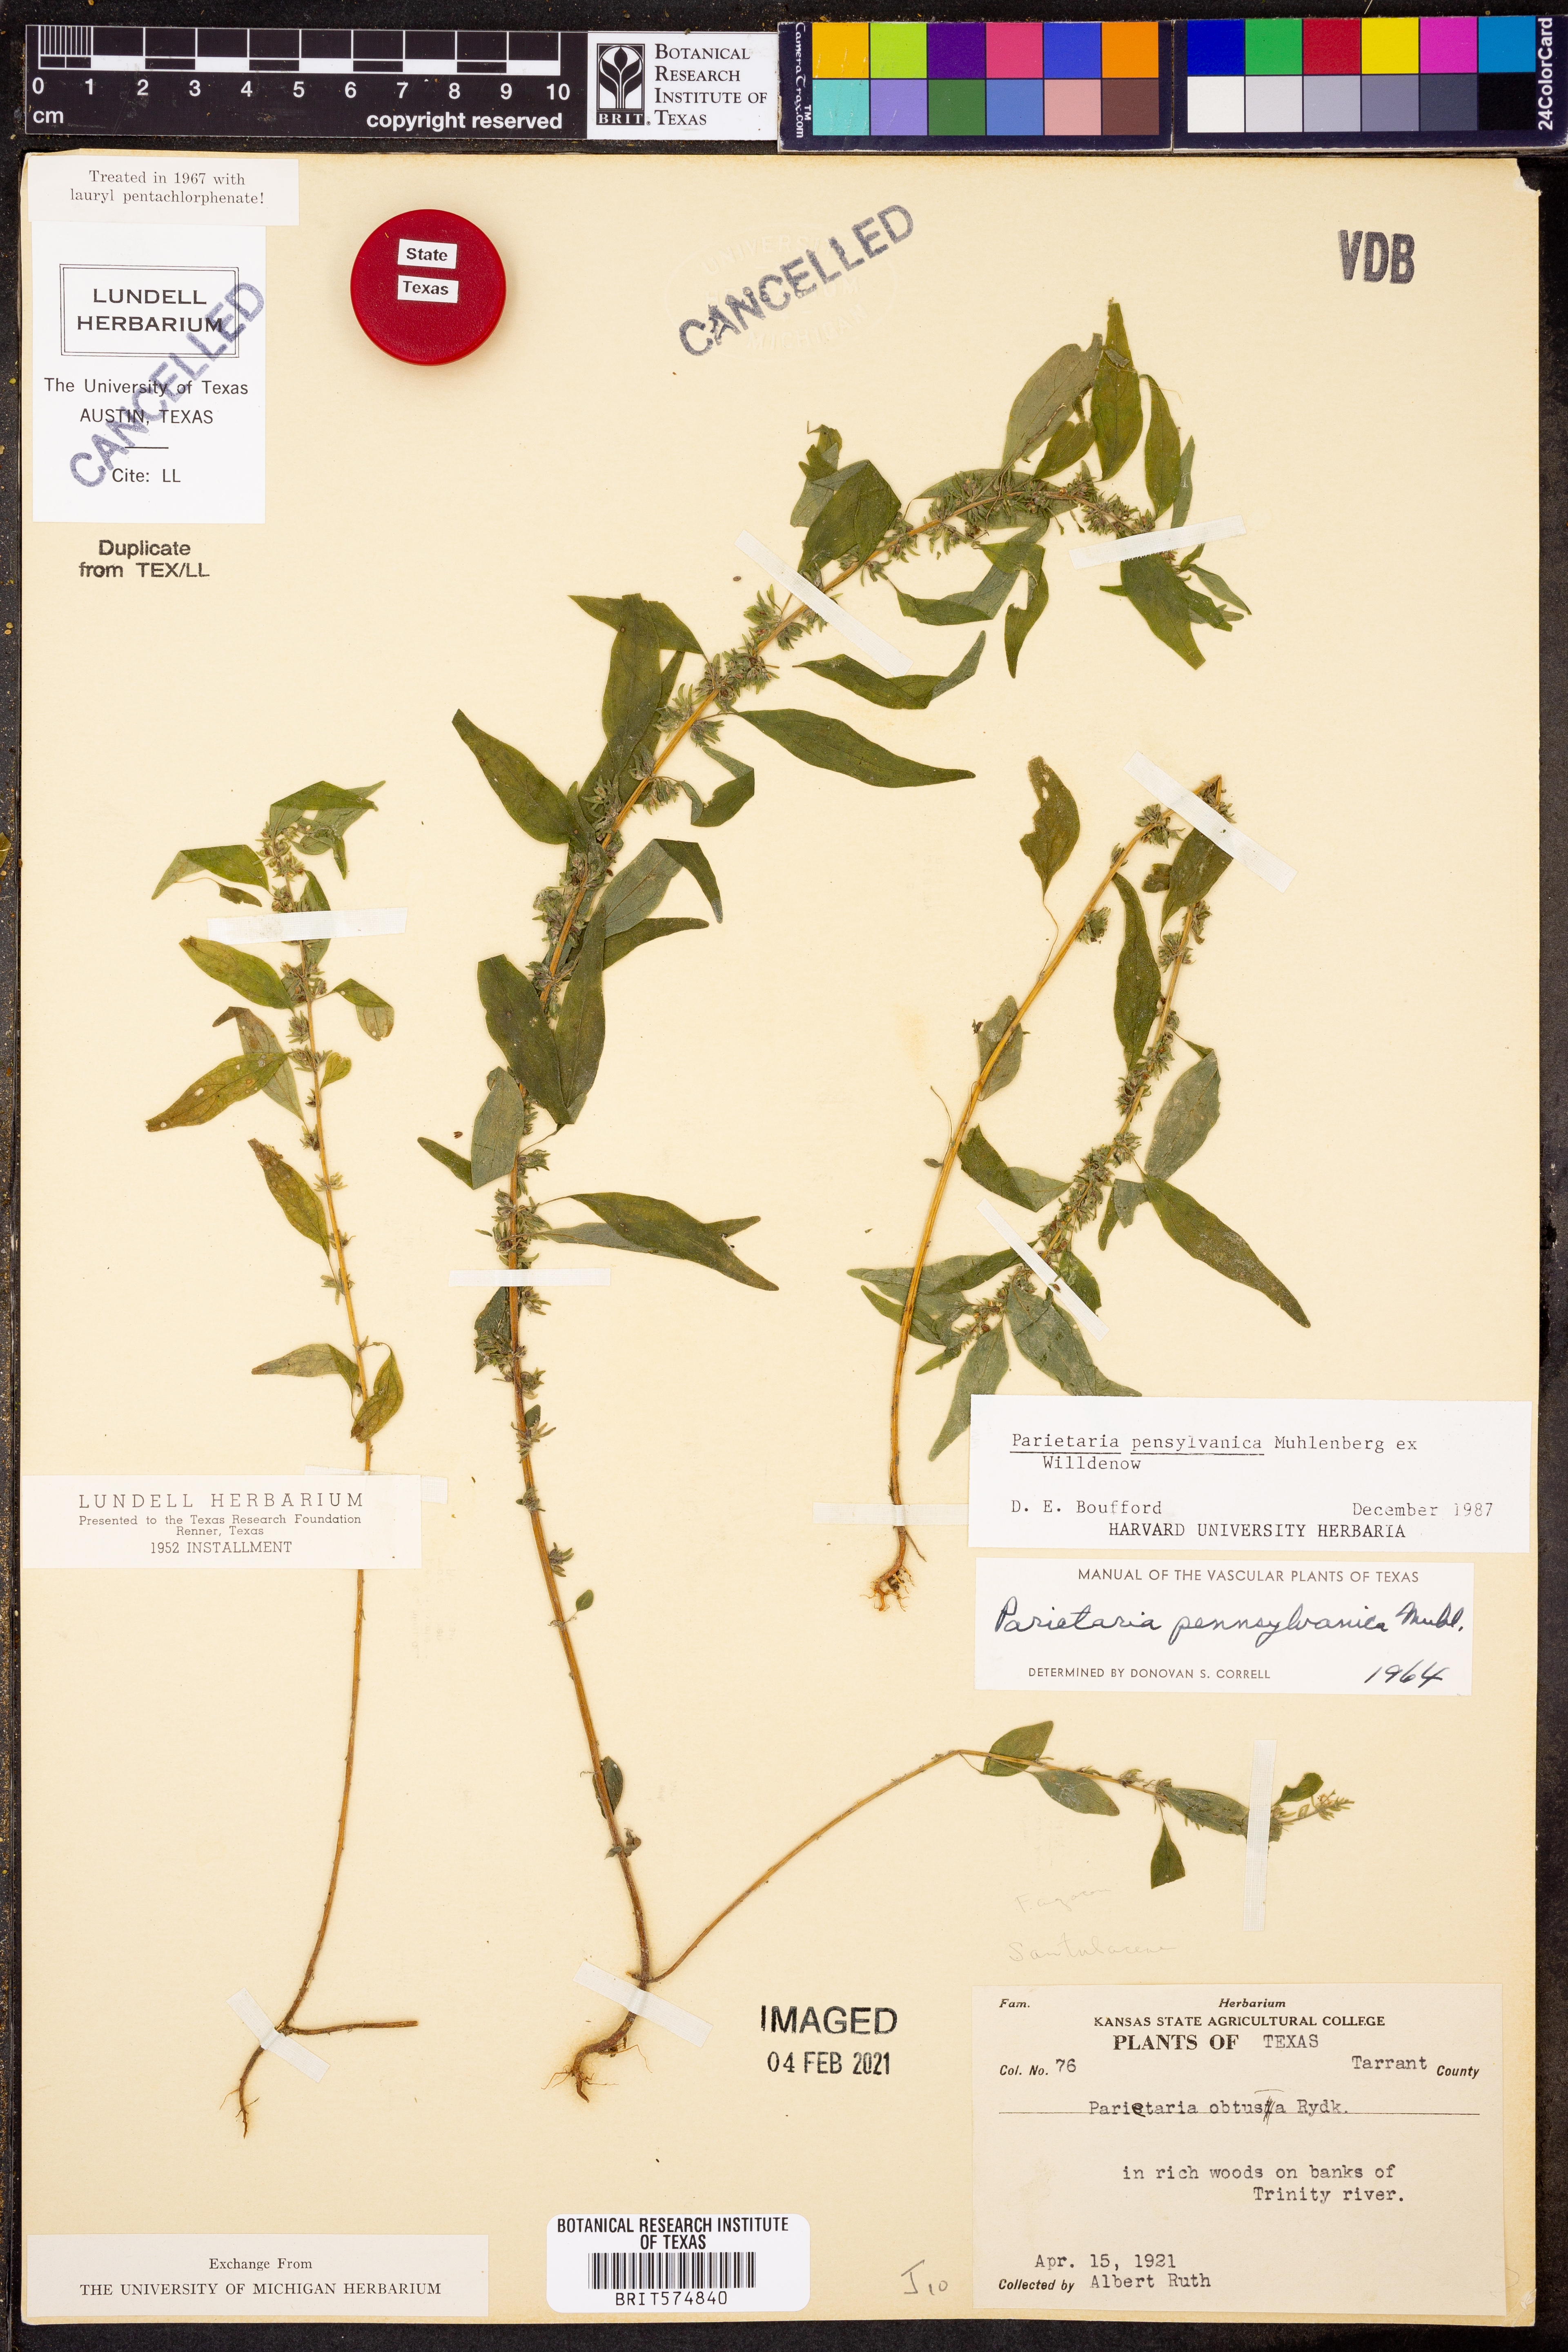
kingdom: Plantae
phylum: Tracheophyta
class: Magnoliopsida
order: Rosales
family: Urticaceae
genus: Parietaria
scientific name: Parietaria pensylvanica
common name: Pennsylvania pellitory
